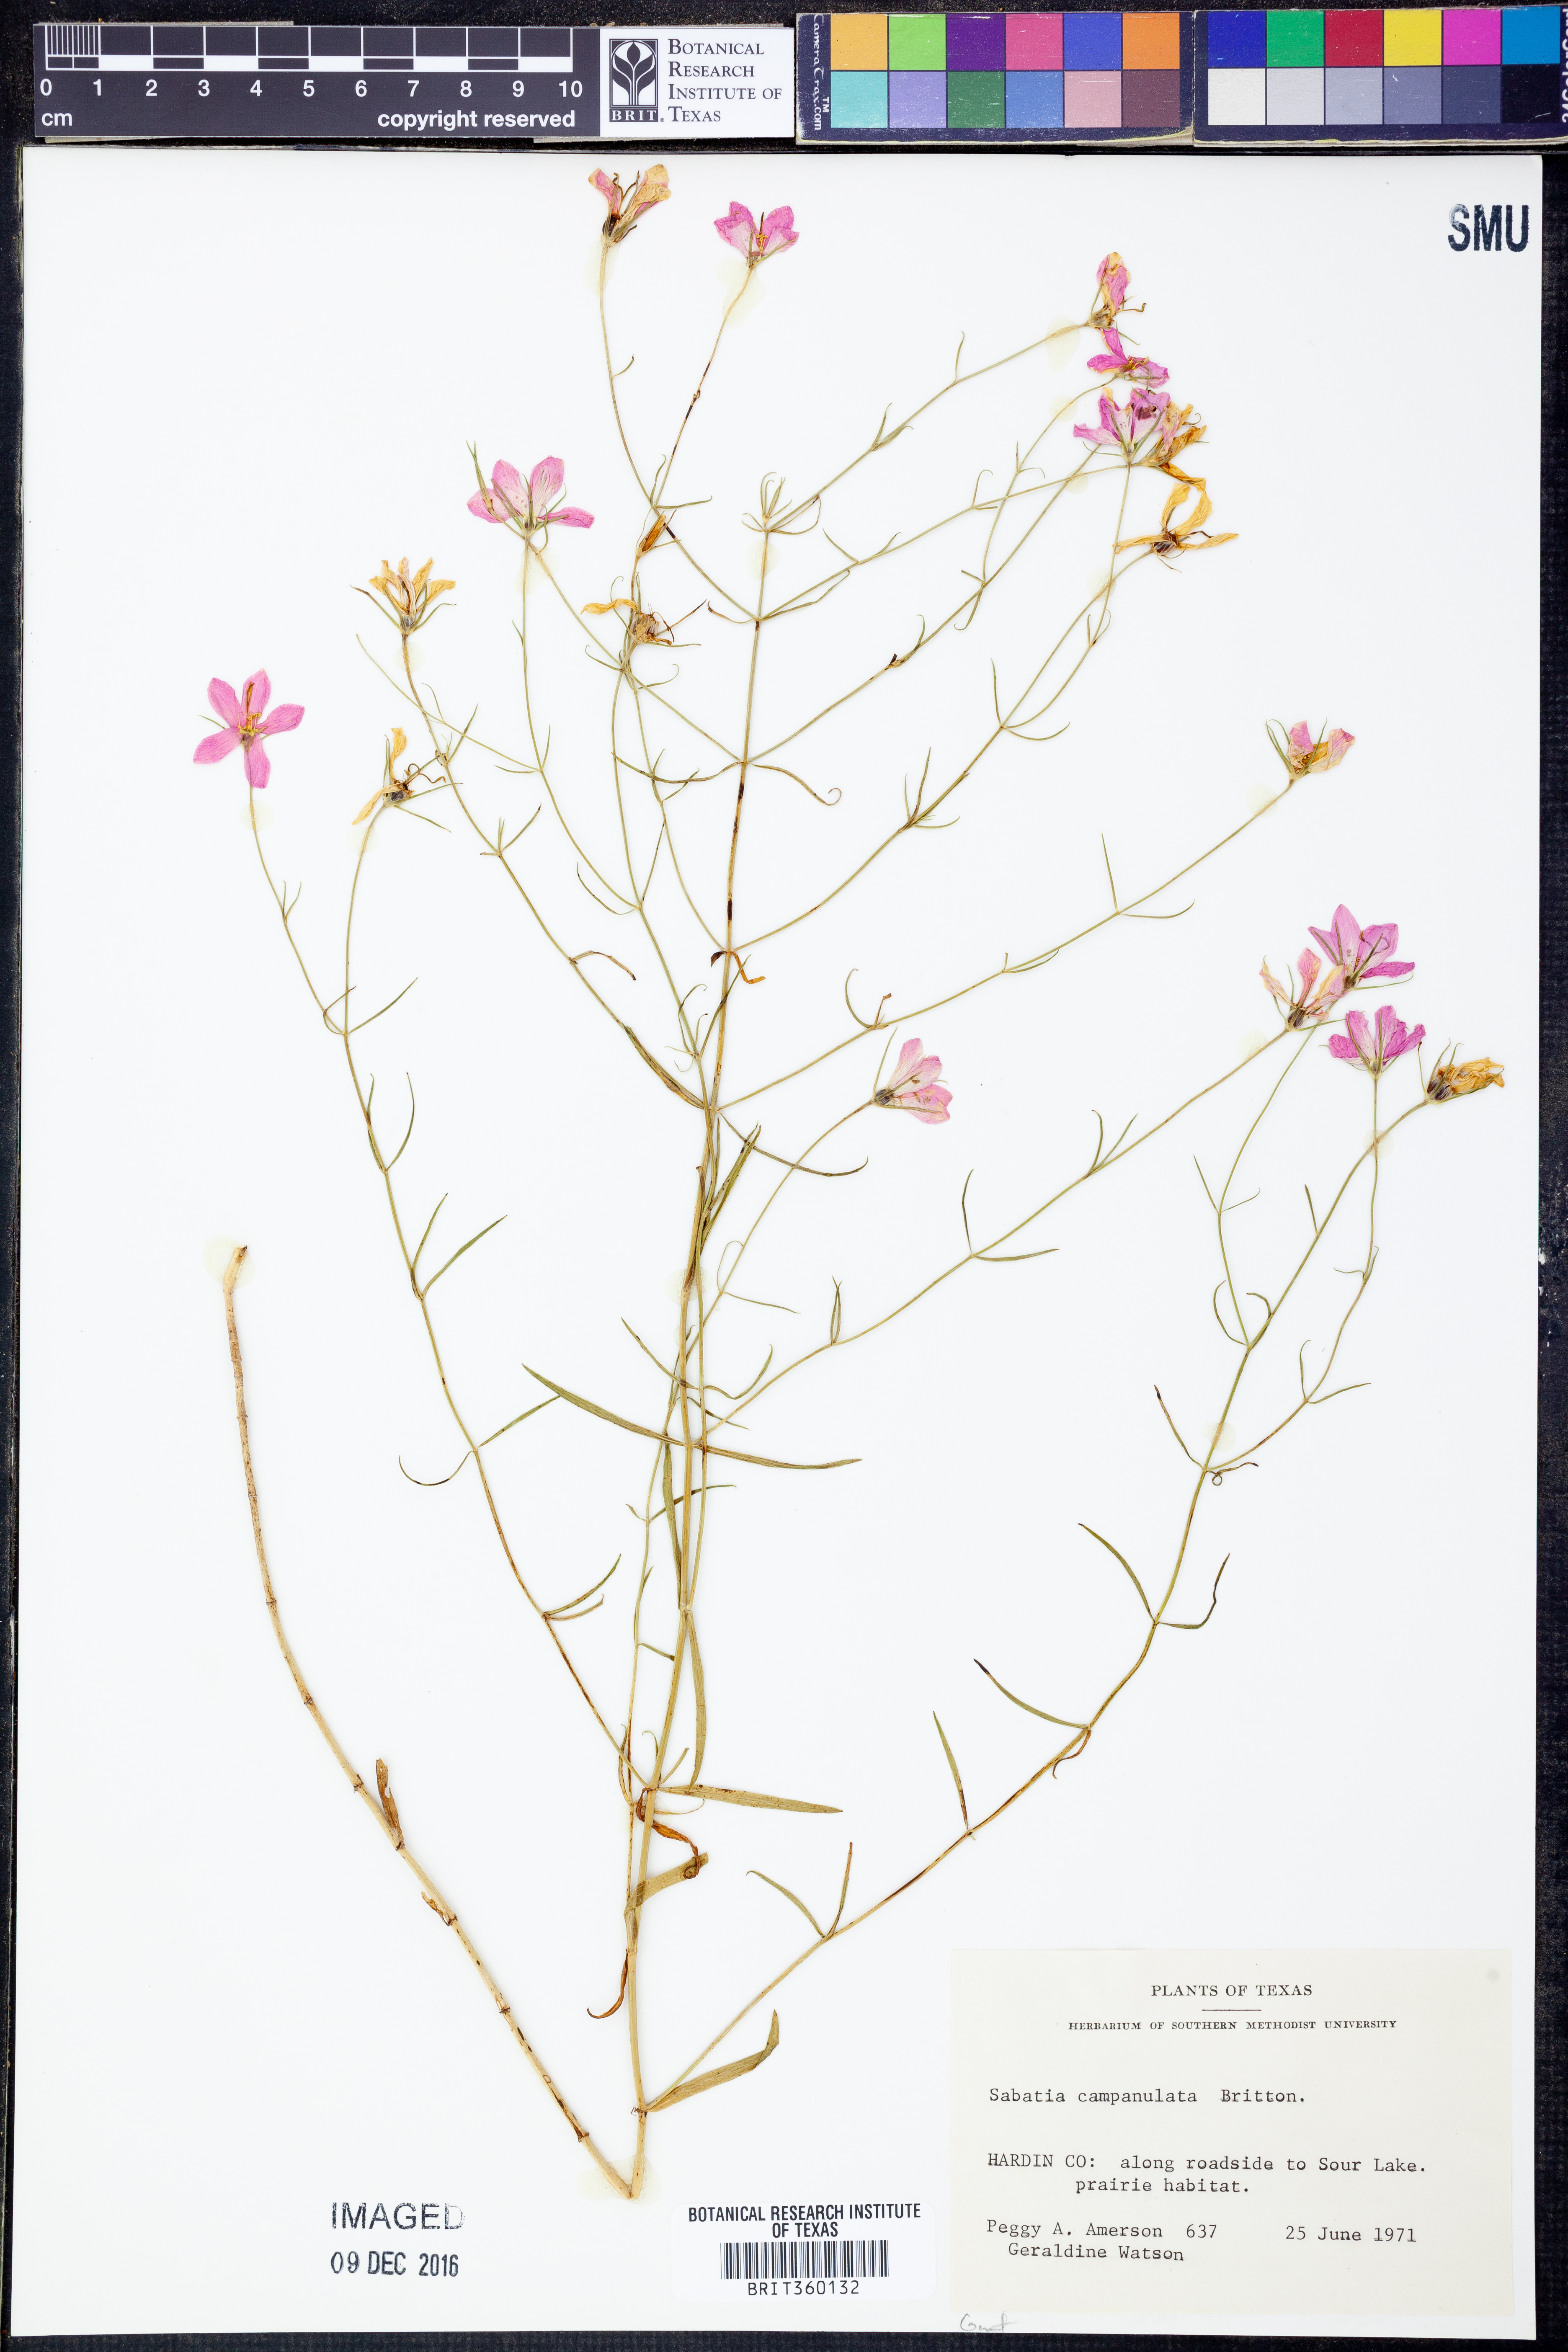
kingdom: Plantae
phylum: Tracheophyta
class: Magnoliopsida
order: Gentianales
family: Gentianaceae
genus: Sabatia
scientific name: Sabatia campanulata
